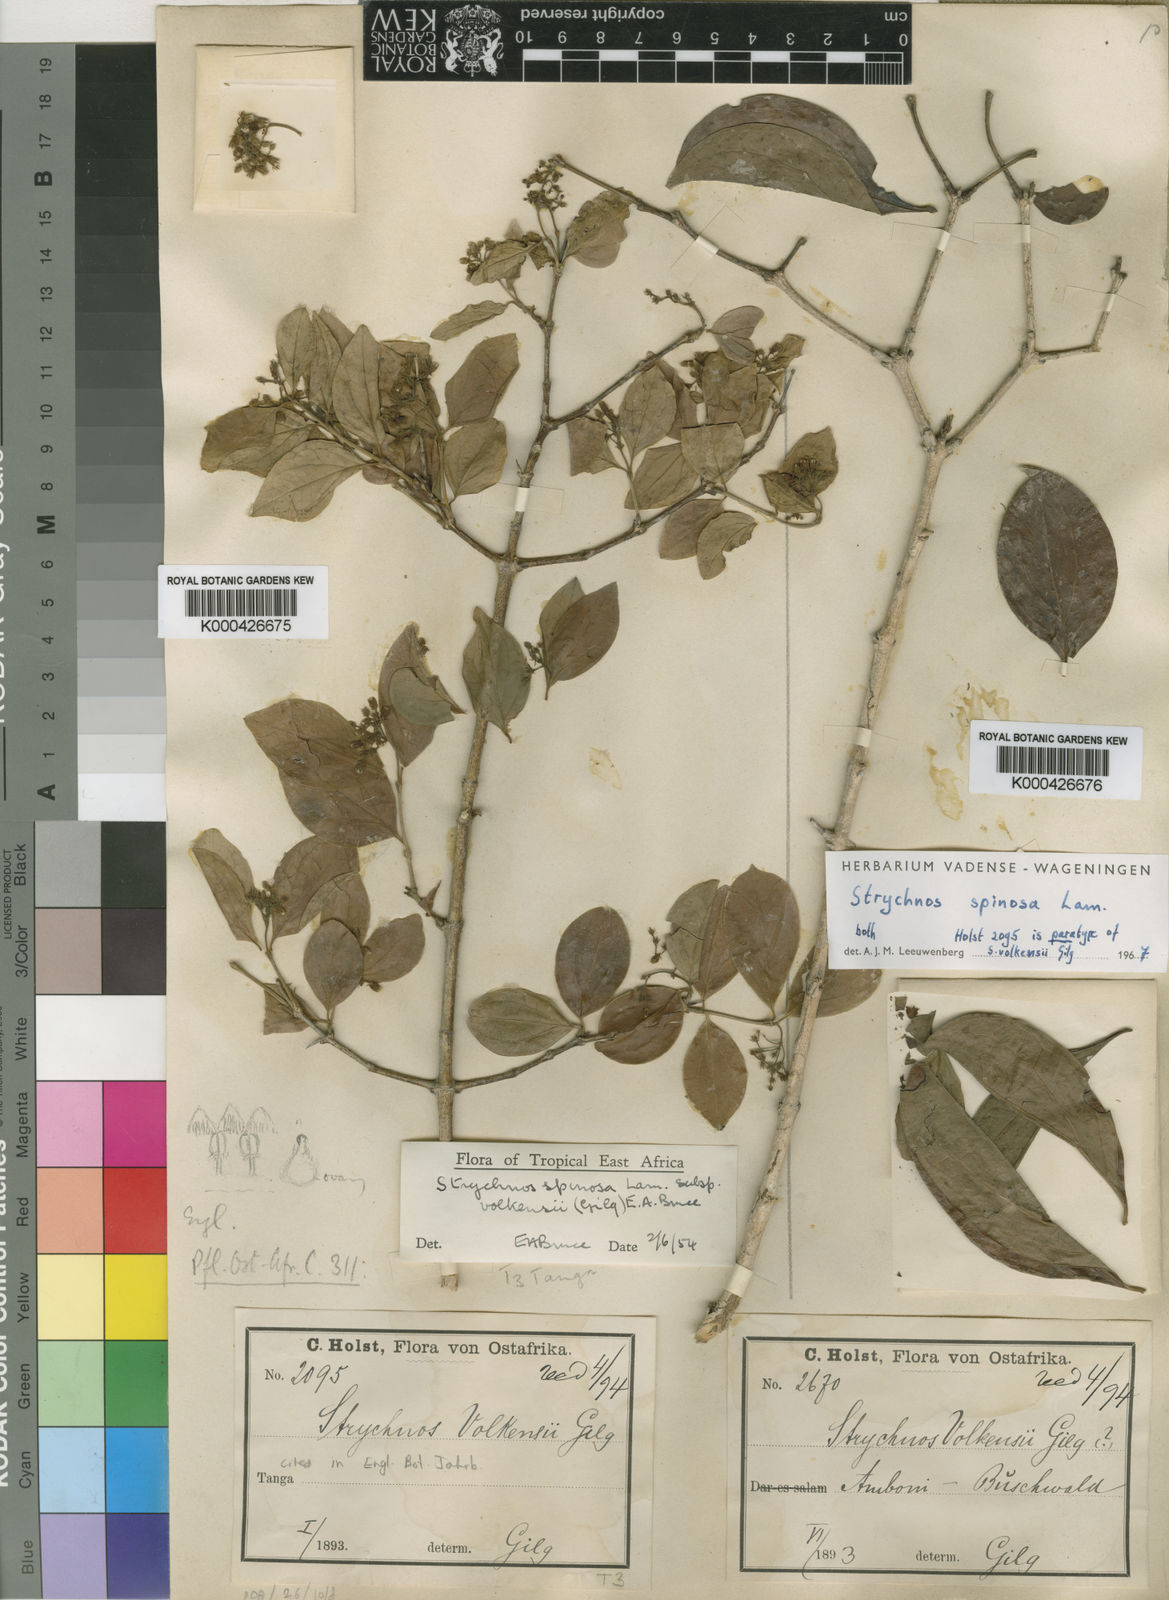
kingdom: Plantae
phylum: Tracheophyta
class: Magnoliopsida
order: Gentianales
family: Loganiaceae
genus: Strychnos
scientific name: Strychnos spinosa
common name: Natal orange
